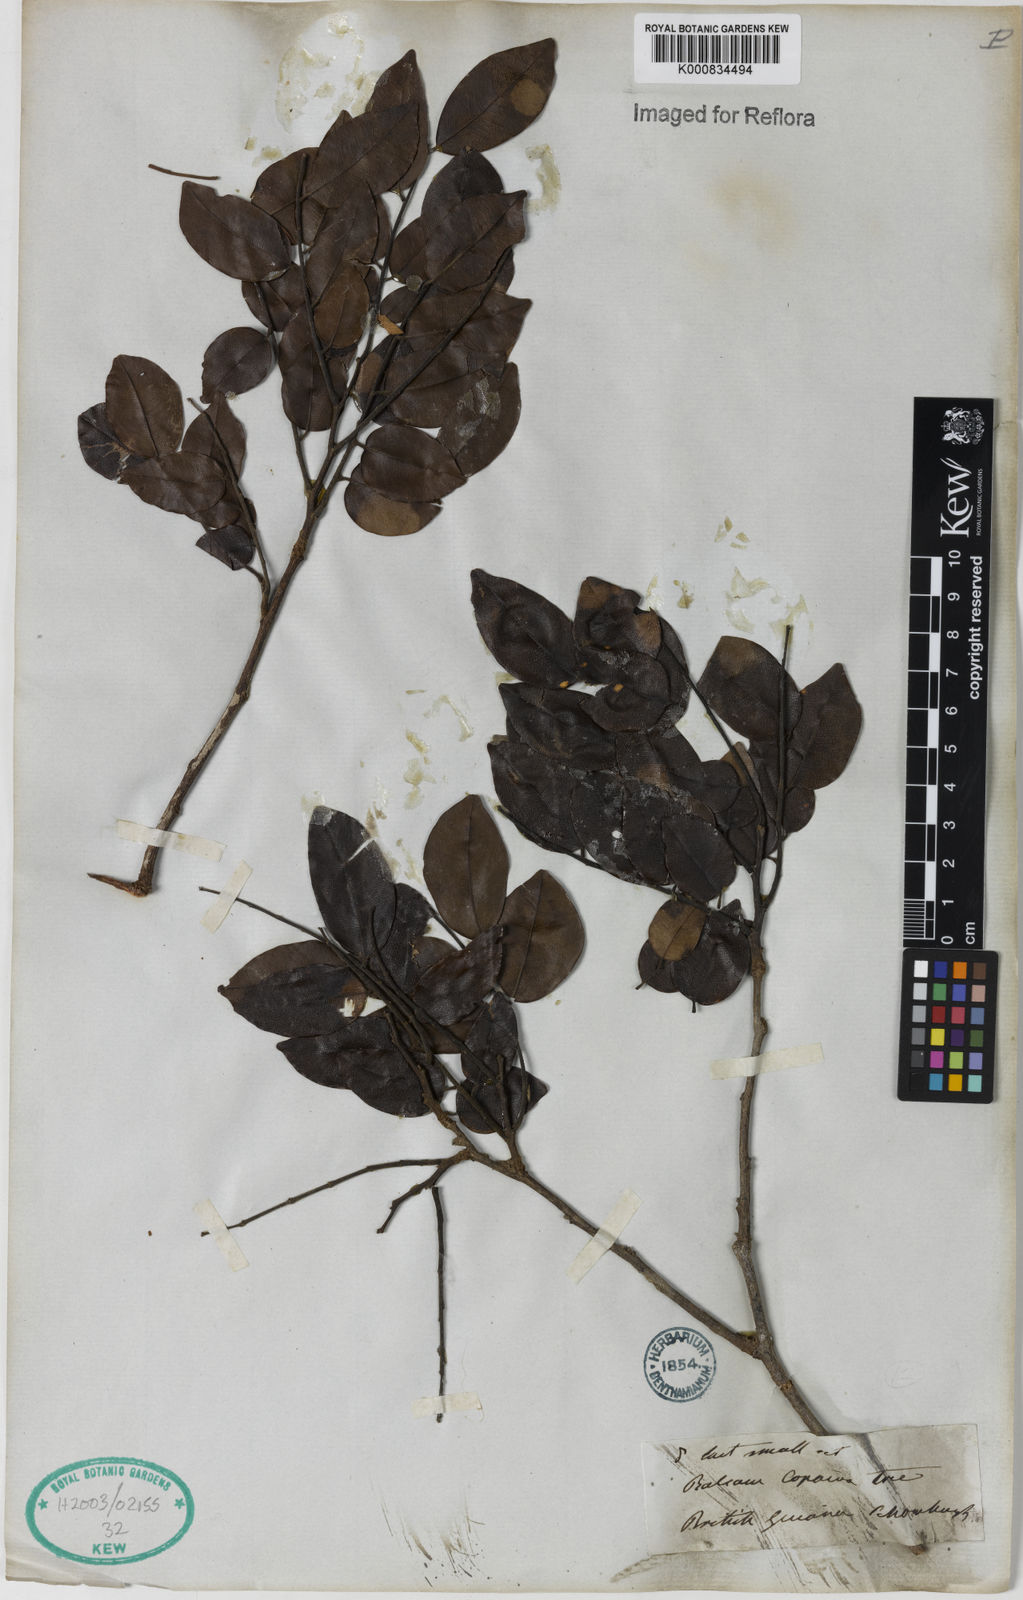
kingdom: Plantae
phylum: Tracheophyta
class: Magnoliopsida
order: Fabales
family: Fabaceae
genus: Copaifera
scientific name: Copaifera
